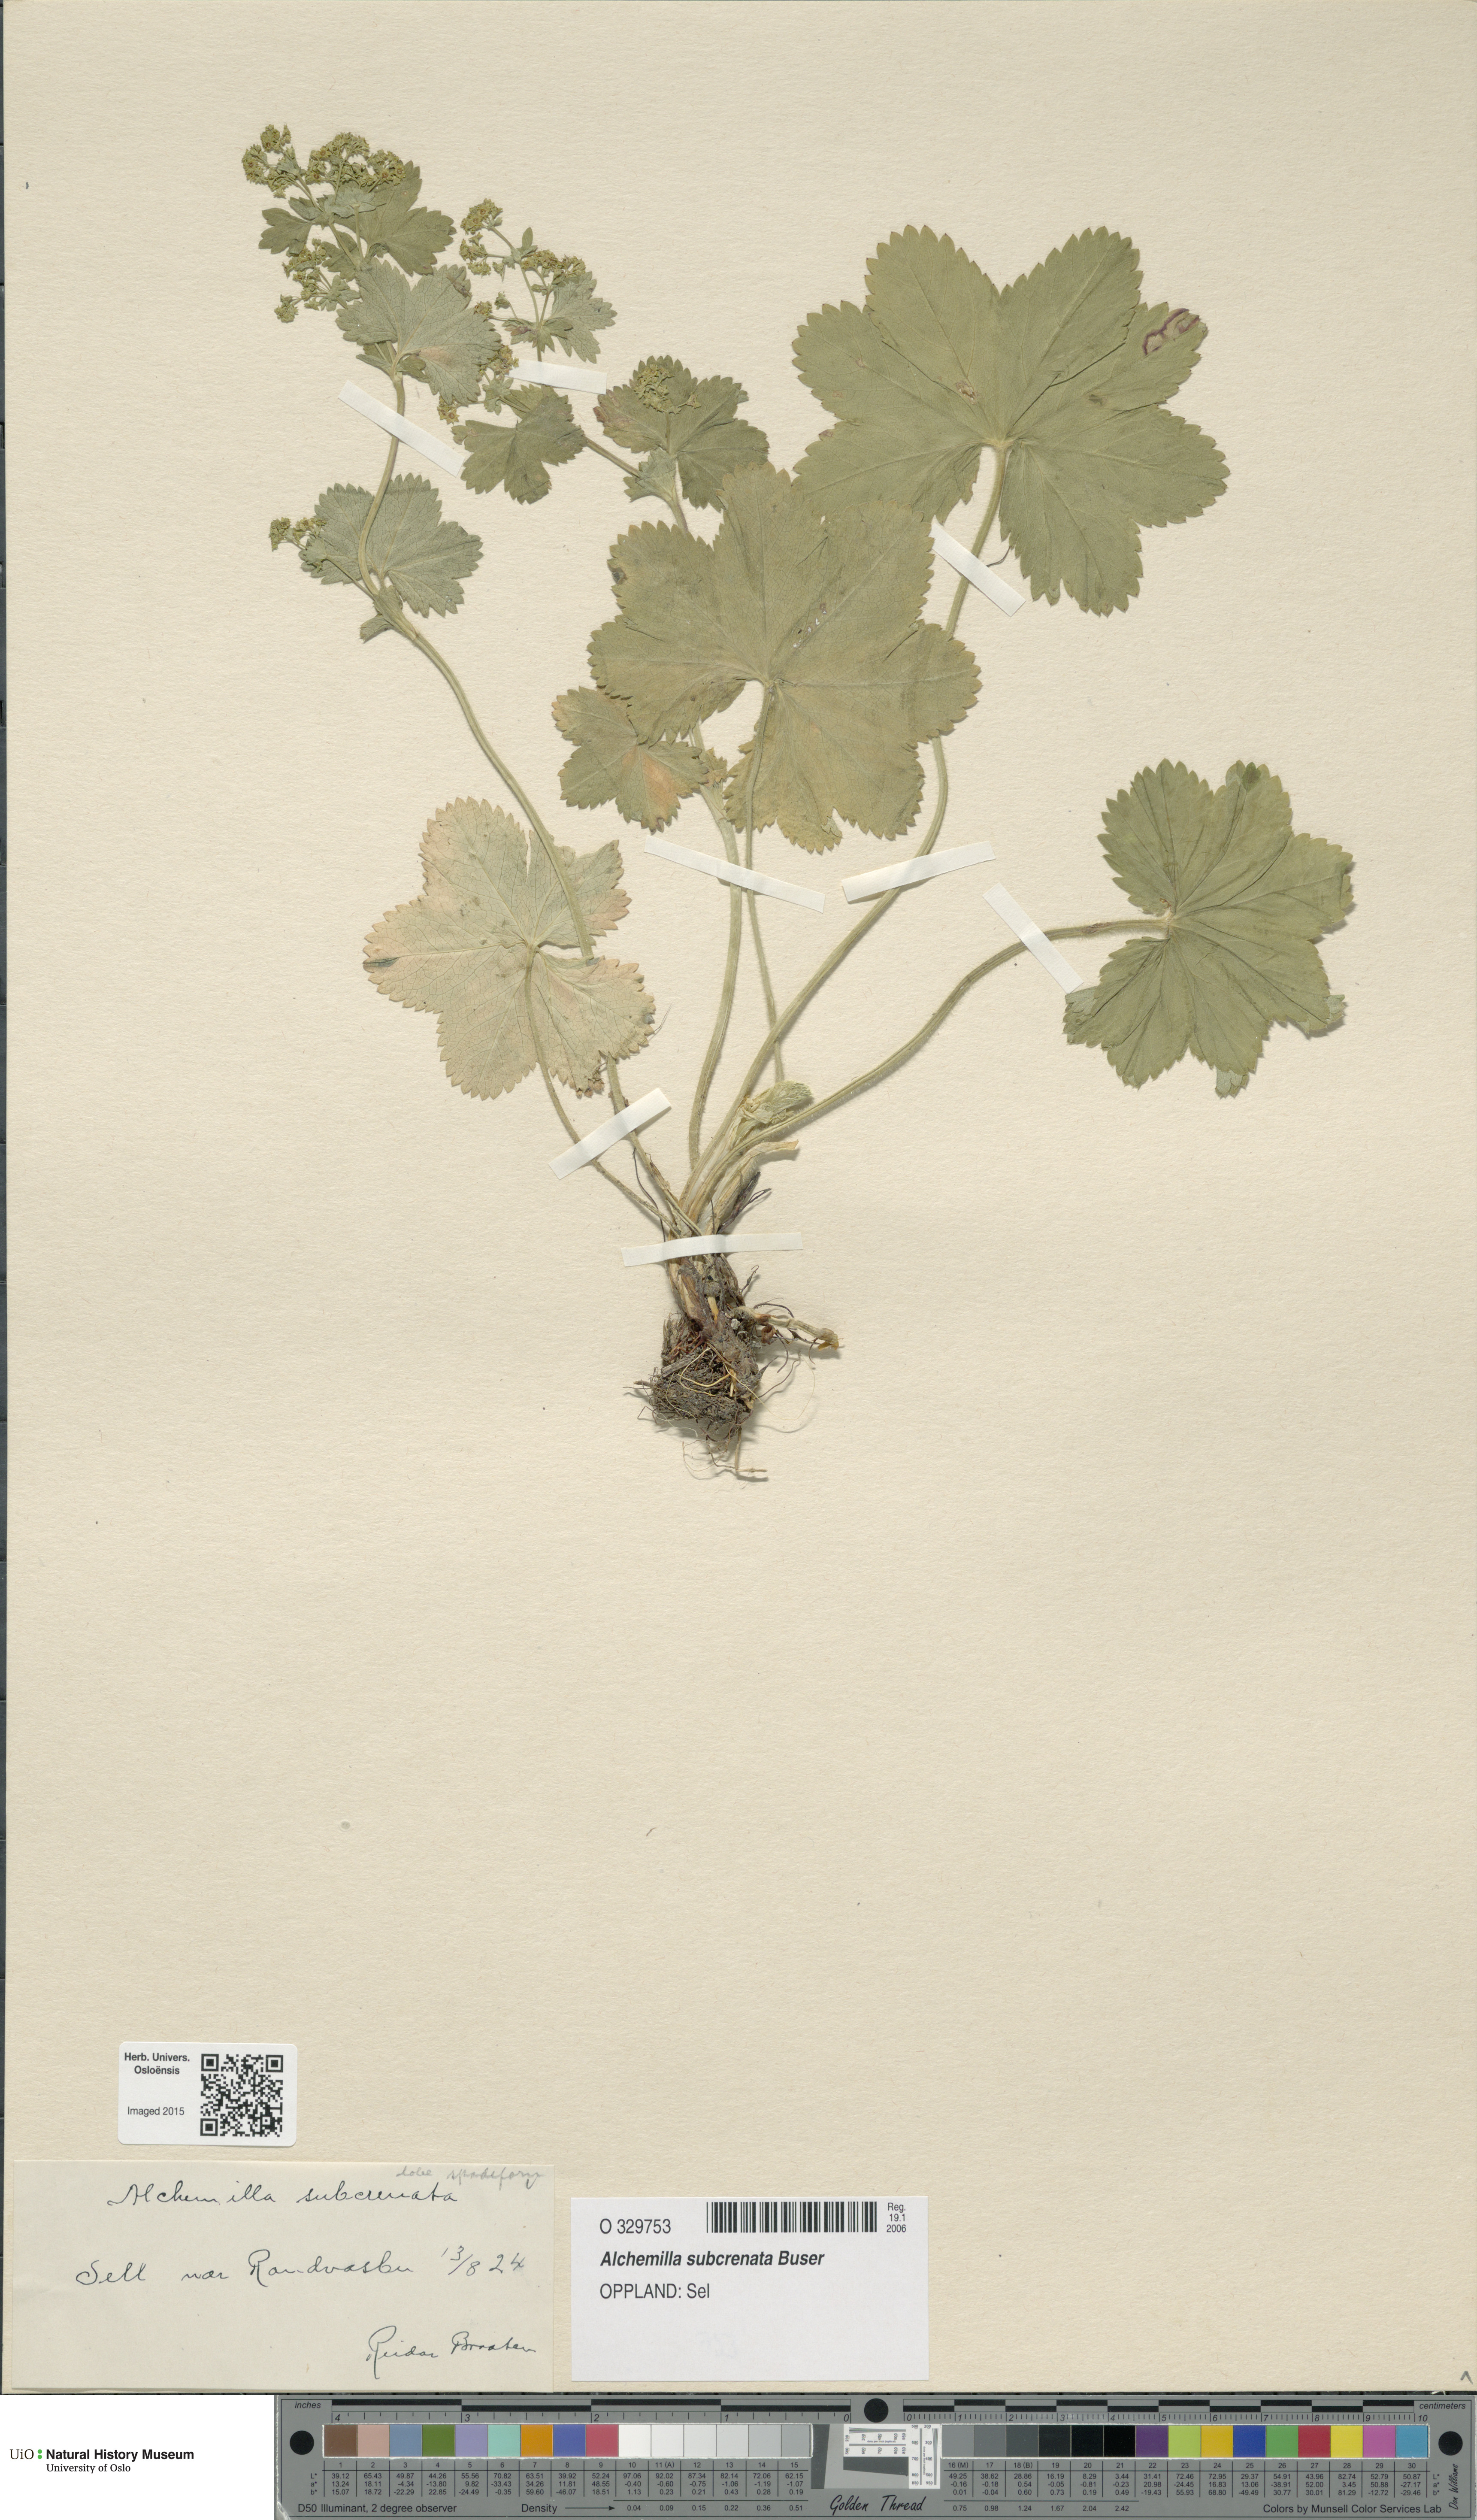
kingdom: Plantae
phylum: Tracheophyta
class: Magnoliopsida
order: Rosales
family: Rosaceae
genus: Alchemilla
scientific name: Alchemilla subcrenata
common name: Broadtooth lady's mantle
